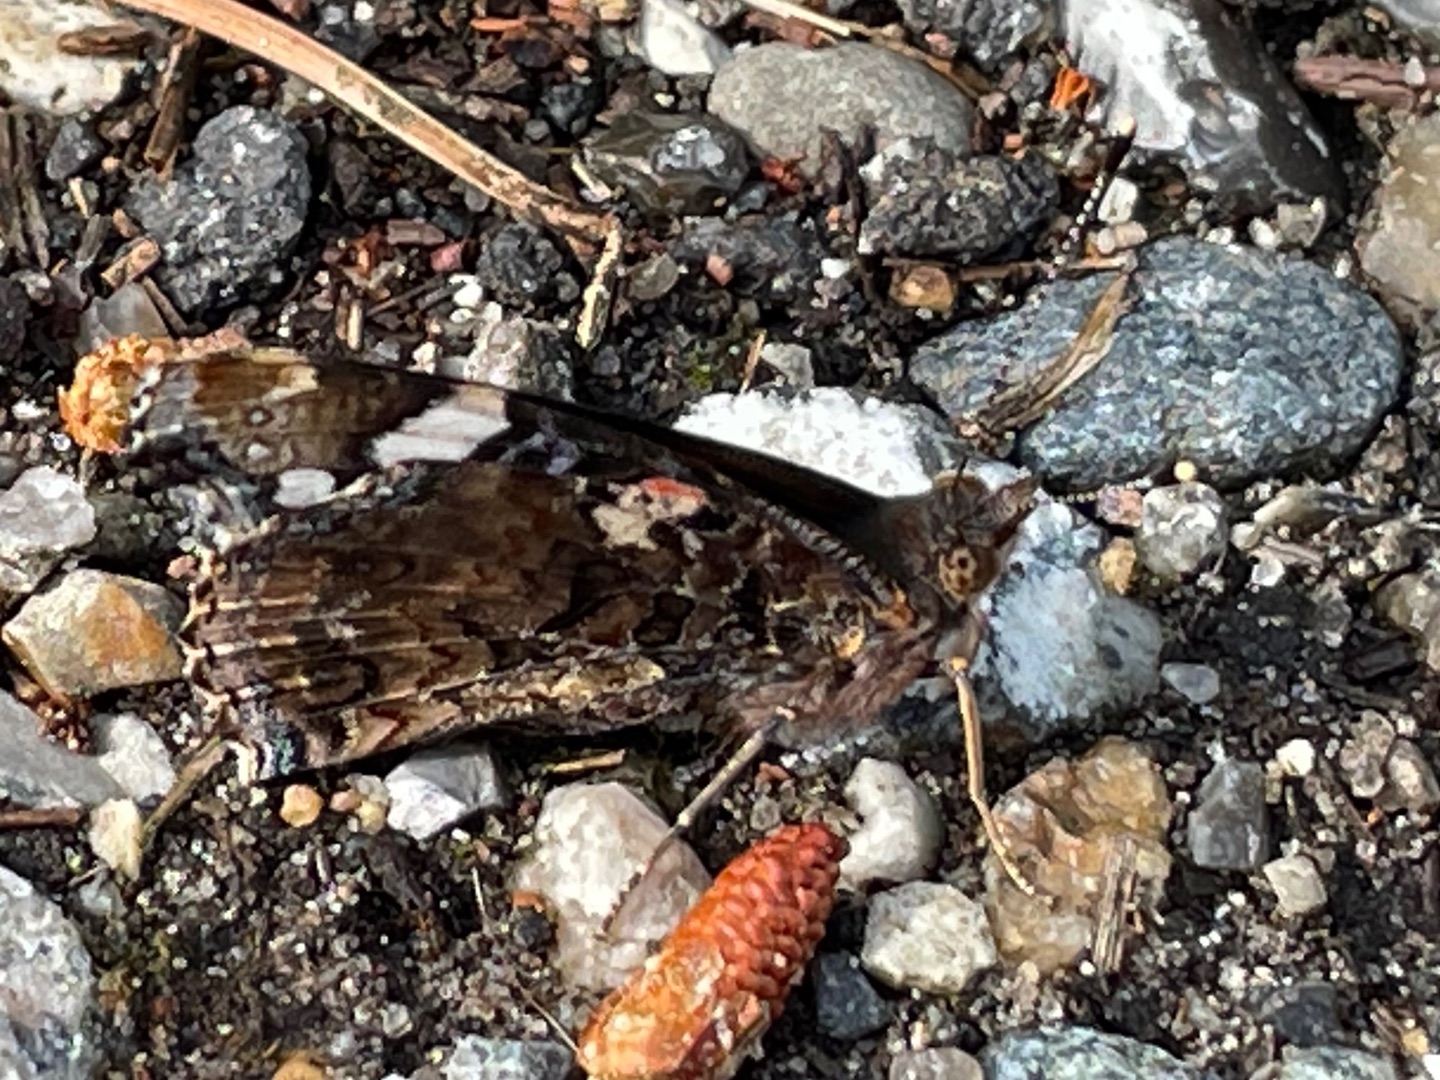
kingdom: Animalia
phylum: Arthropoda
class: Insecta
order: Lepidoptera
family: Nymphalidae
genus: Vanessa
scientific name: Vanessa atalanta
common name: Admiral
